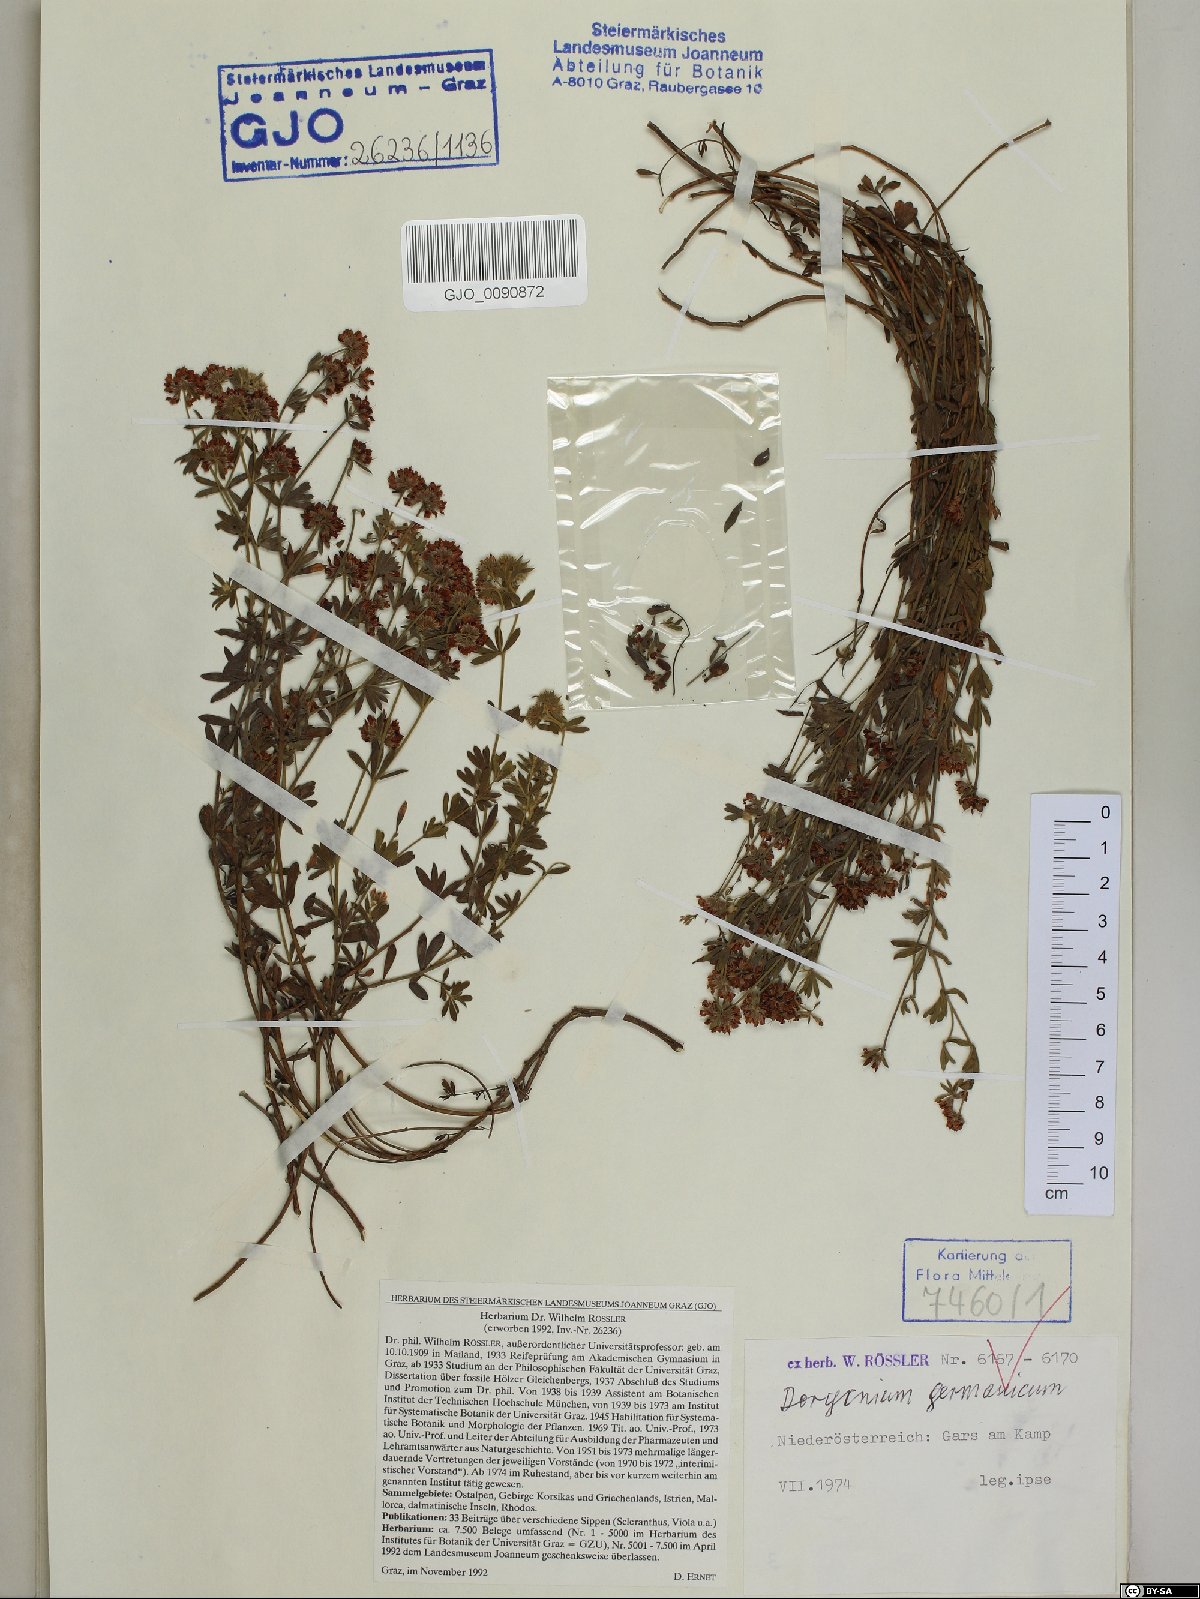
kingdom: Plantae
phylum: Tracheophyta
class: Magnoliopsida
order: Fabales
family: Fabaceae
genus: Lotus
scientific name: Lotus germanicus
